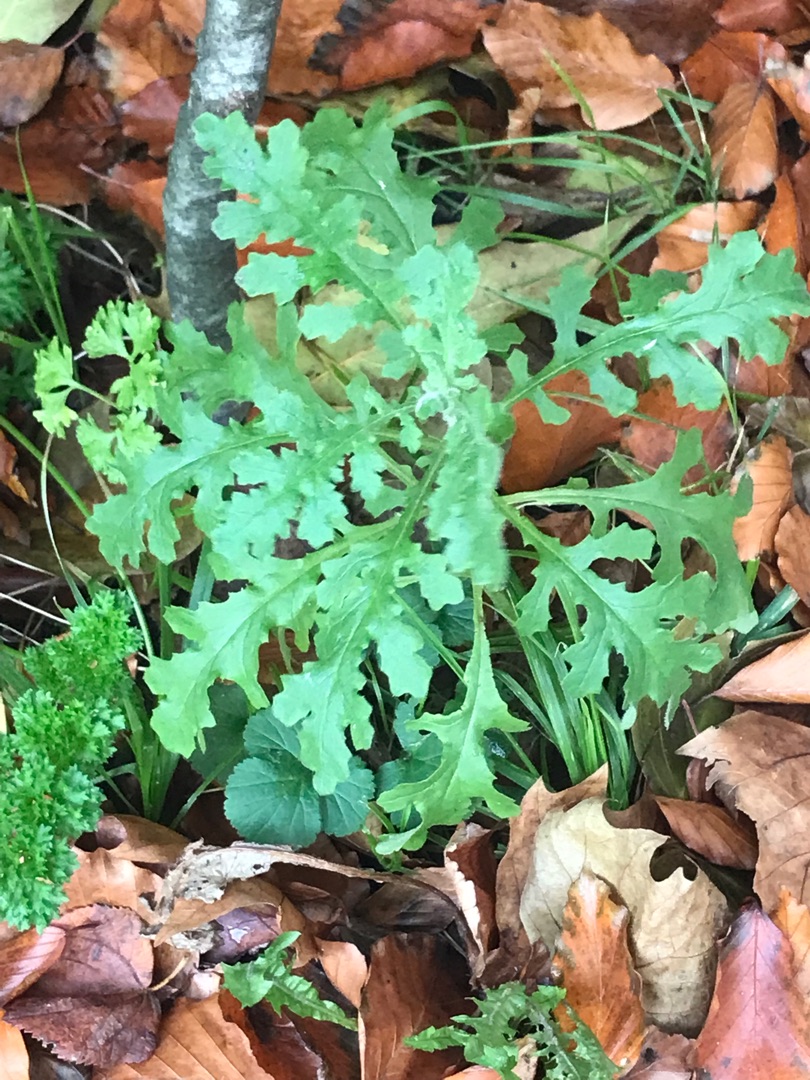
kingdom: Plantae
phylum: Tracheophyta
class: Magnoliopsida
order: Asterales
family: Asteraceae
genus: Senecio
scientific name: Senecio
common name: Brandbægerslægten
